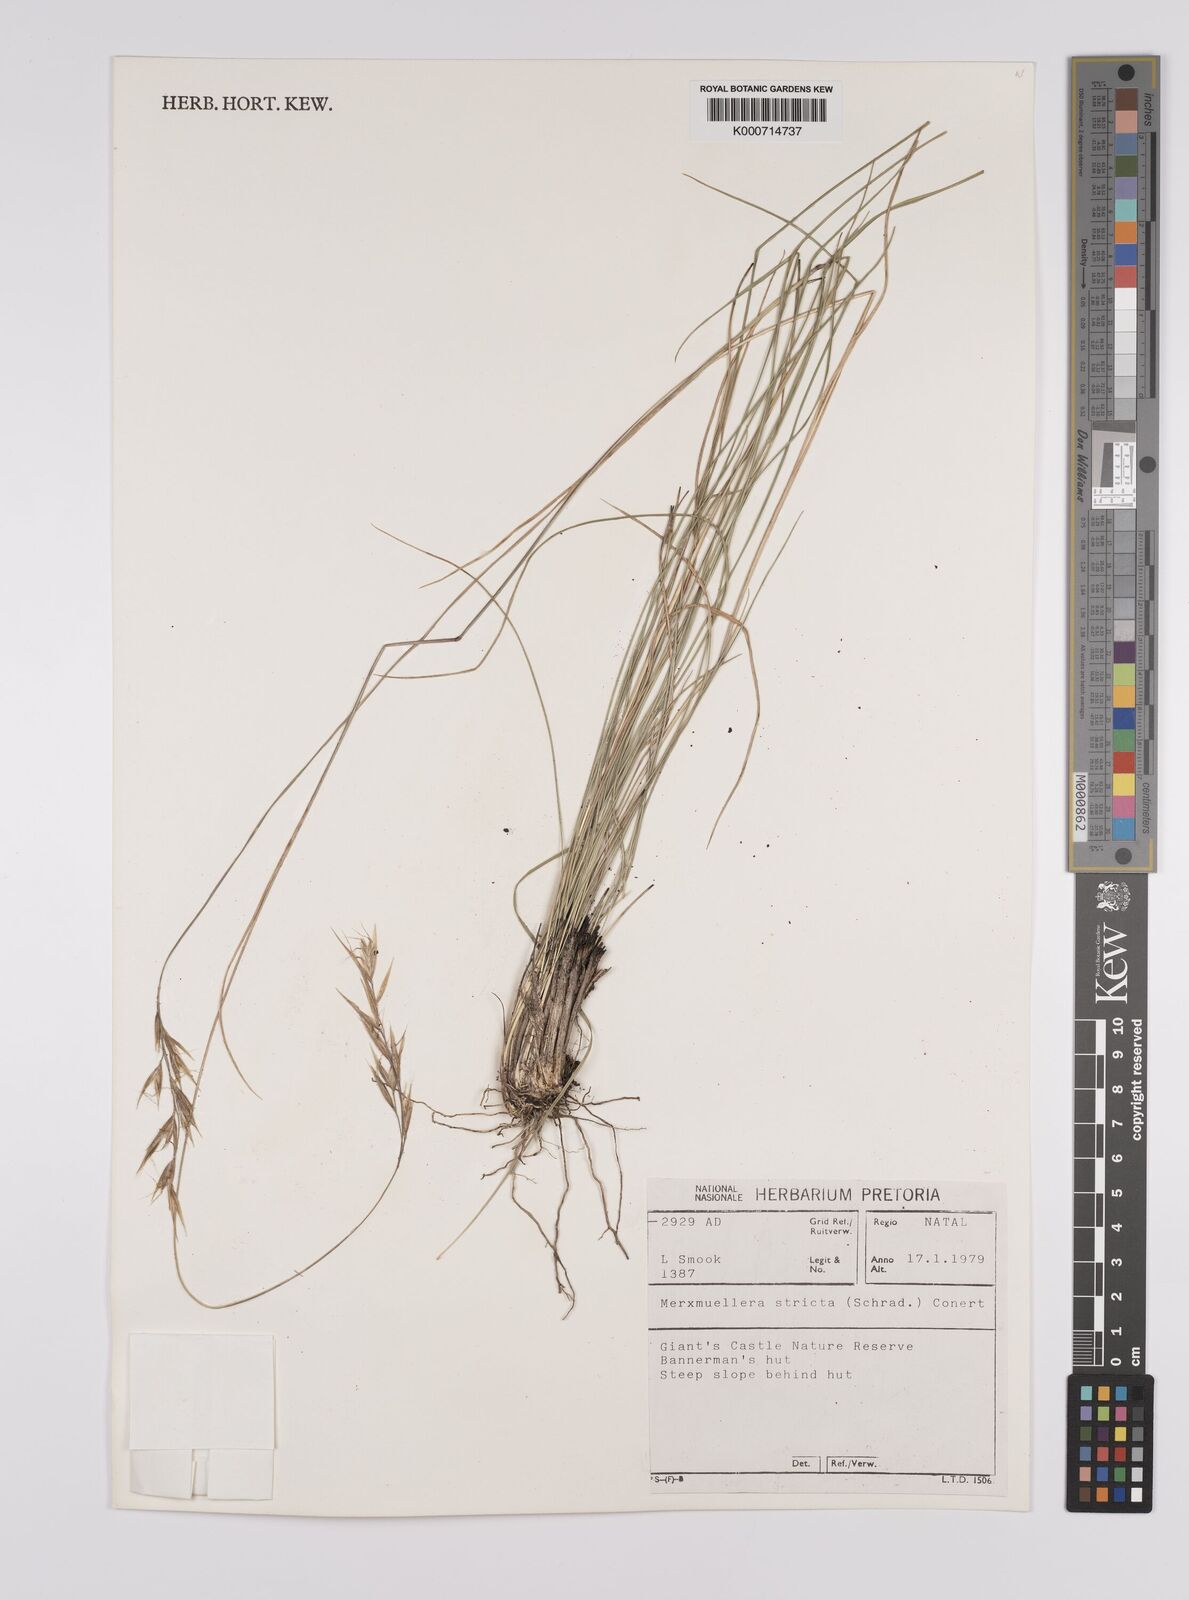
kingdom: Plantae
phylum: Tracheophyta
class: Liliopsida
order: Poales
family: Poaceae
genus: Rytidosperma
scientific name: Rytidosperma
